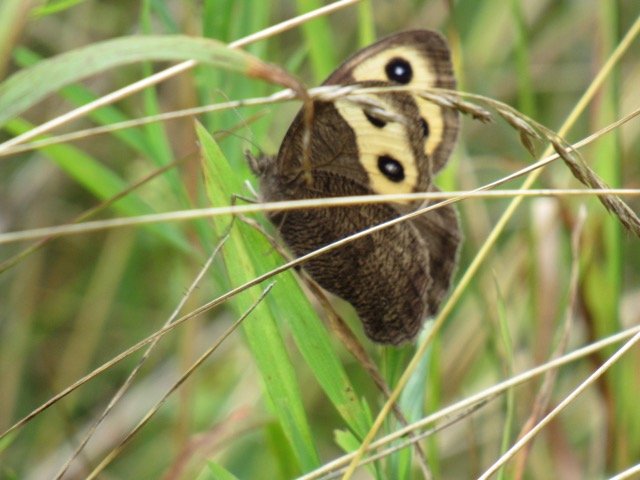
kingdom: Animalia
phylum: Arthropoda
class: Insecta
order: Lepidoptera
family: Nymphalidae
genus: Cercyonis
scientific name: Cercyonis pegala
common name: Common Wood-Nymph
